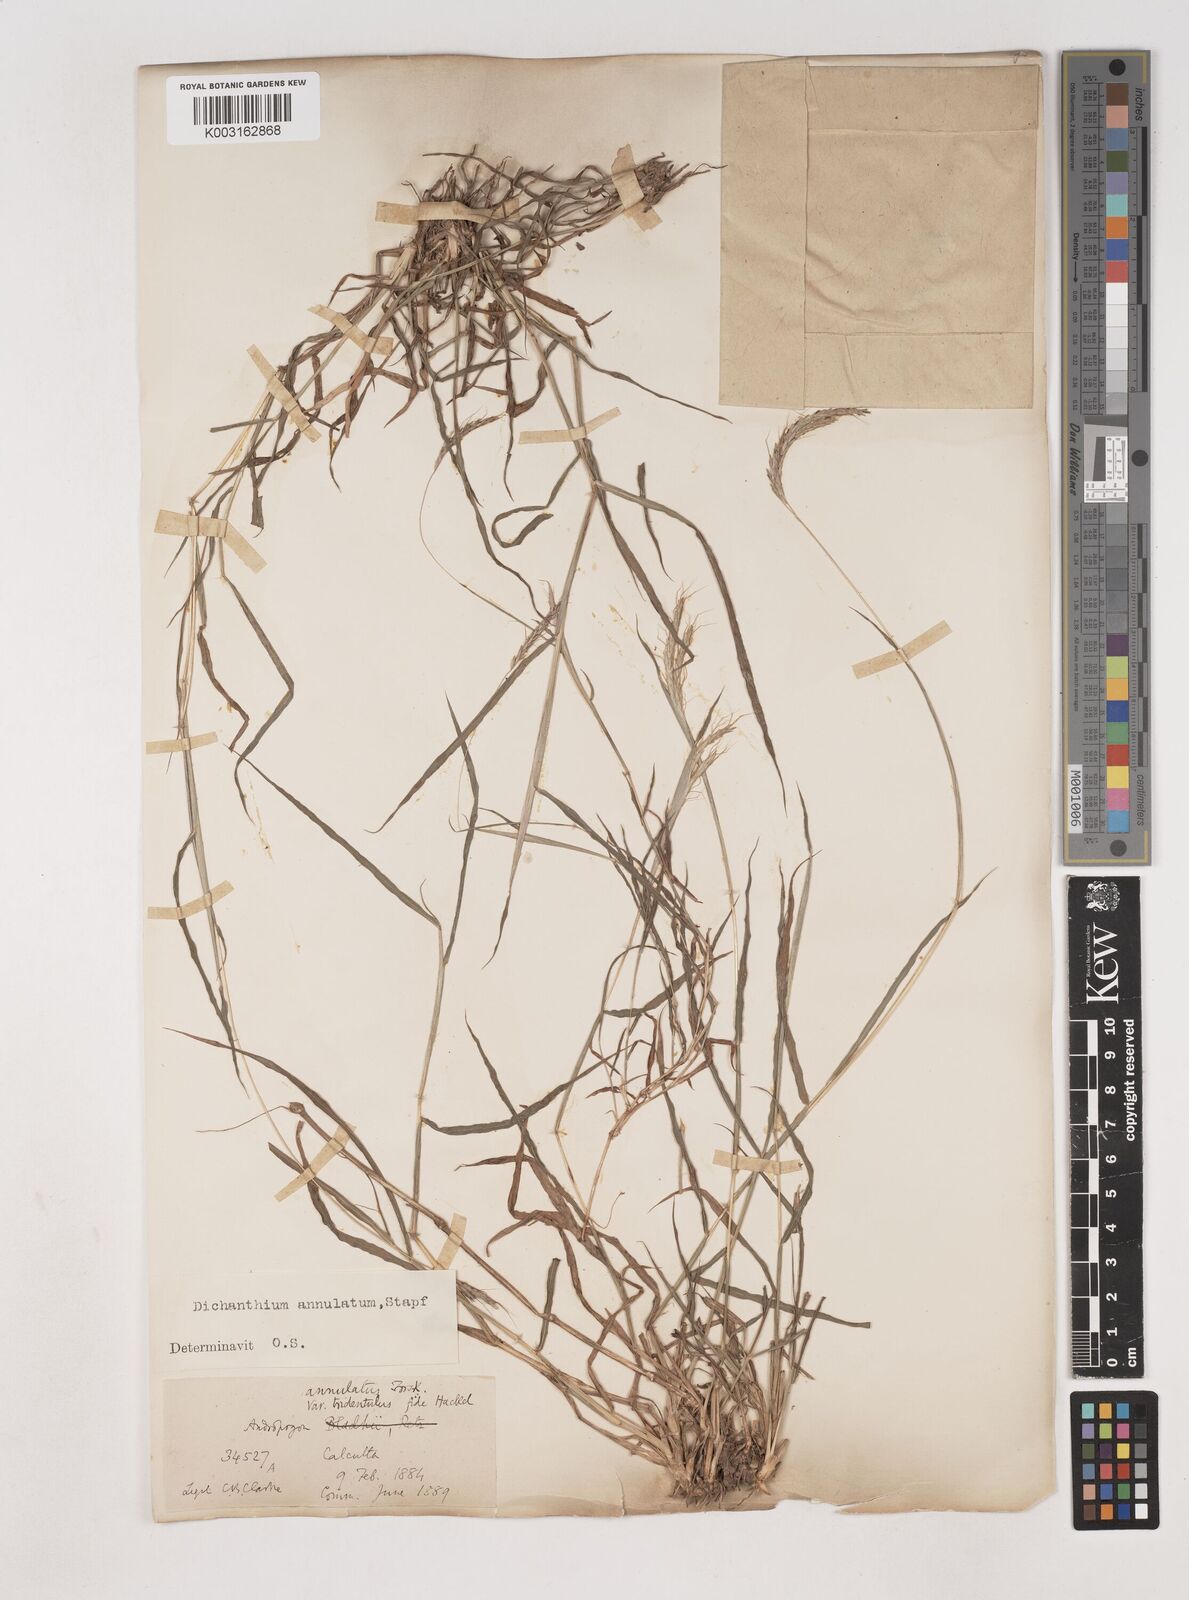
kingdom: Plantae
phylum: Tracheophyta
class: Liliopsida
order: Poales
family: Poaceae
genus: Dichanthium
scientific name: Dichanthium annulatum
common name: Kleberg's bluestem
